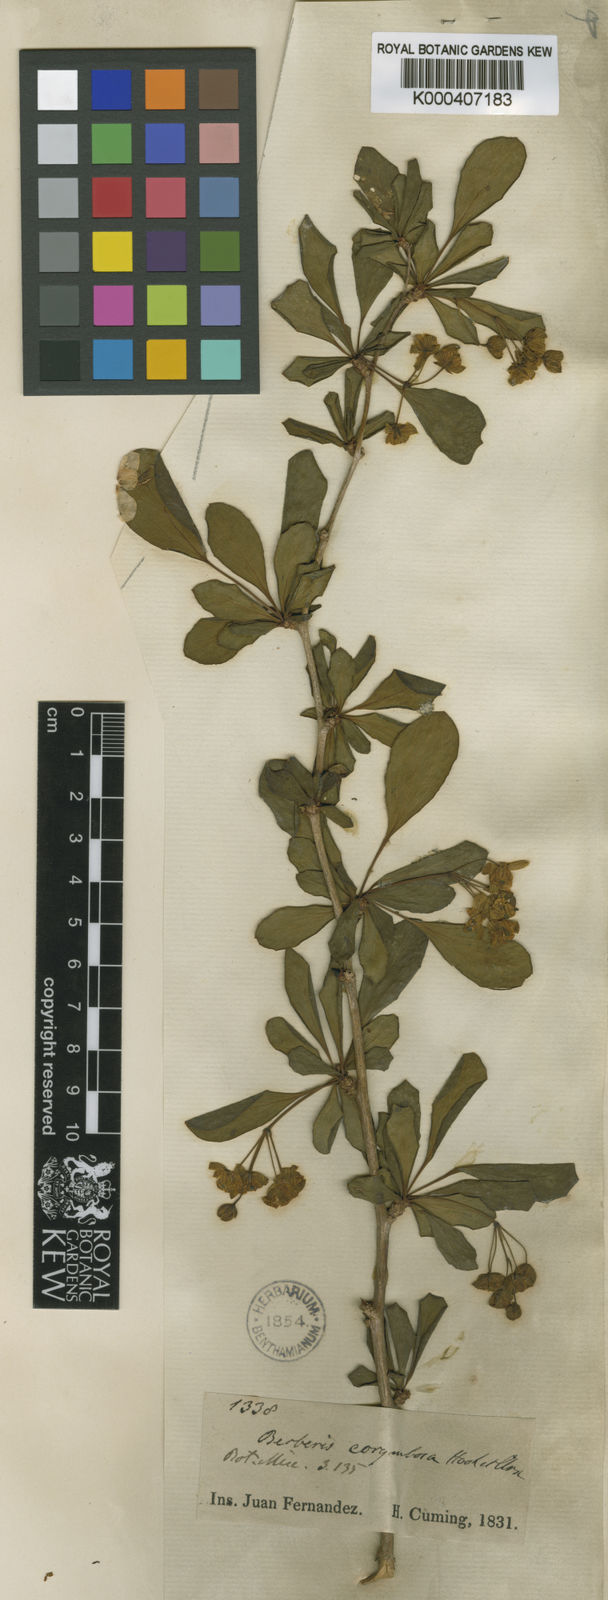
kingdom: Plantae
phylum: Tracheophyta
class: Magnoliopsida
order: Ranunculales
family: Berberidaceae
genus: Berberis
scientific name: Berberis corymbosa
